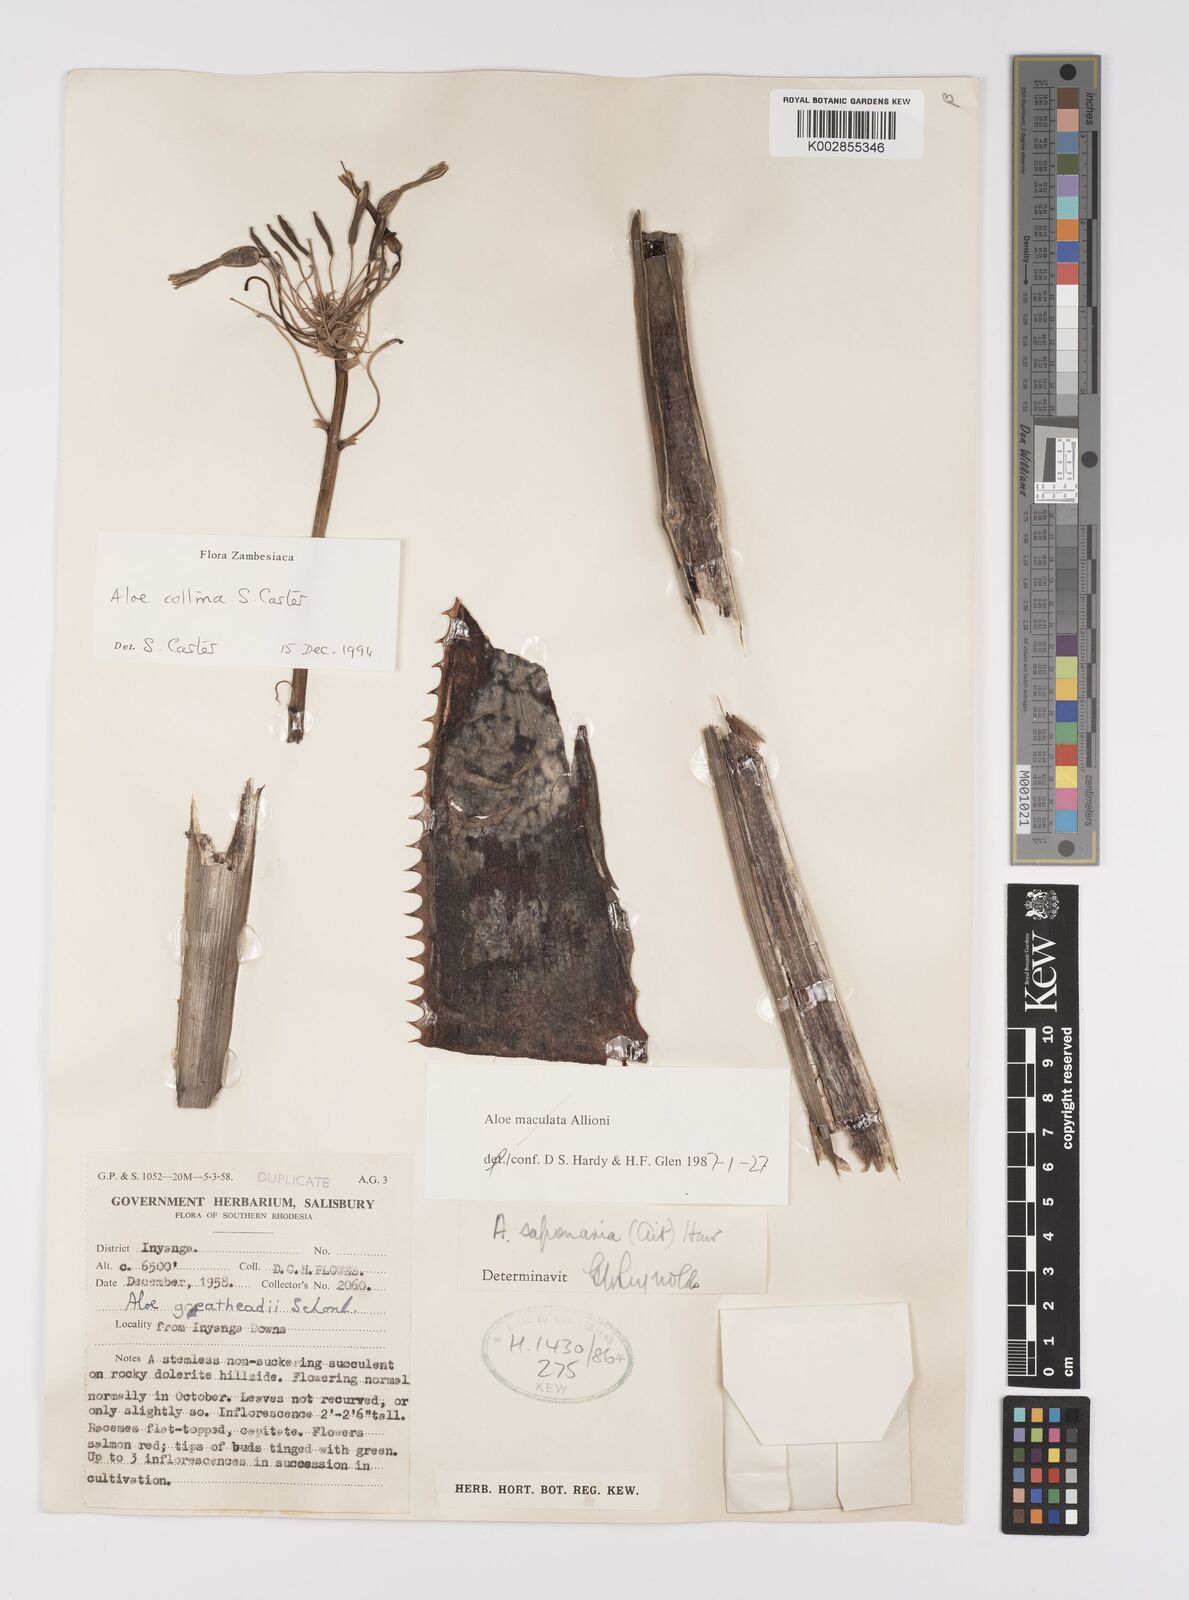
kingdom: Plantae
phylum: Tracheophyta
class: Liliopsida
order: Asparagales
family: Asphodelaceae
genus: Aloe
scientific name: Aloe collina
